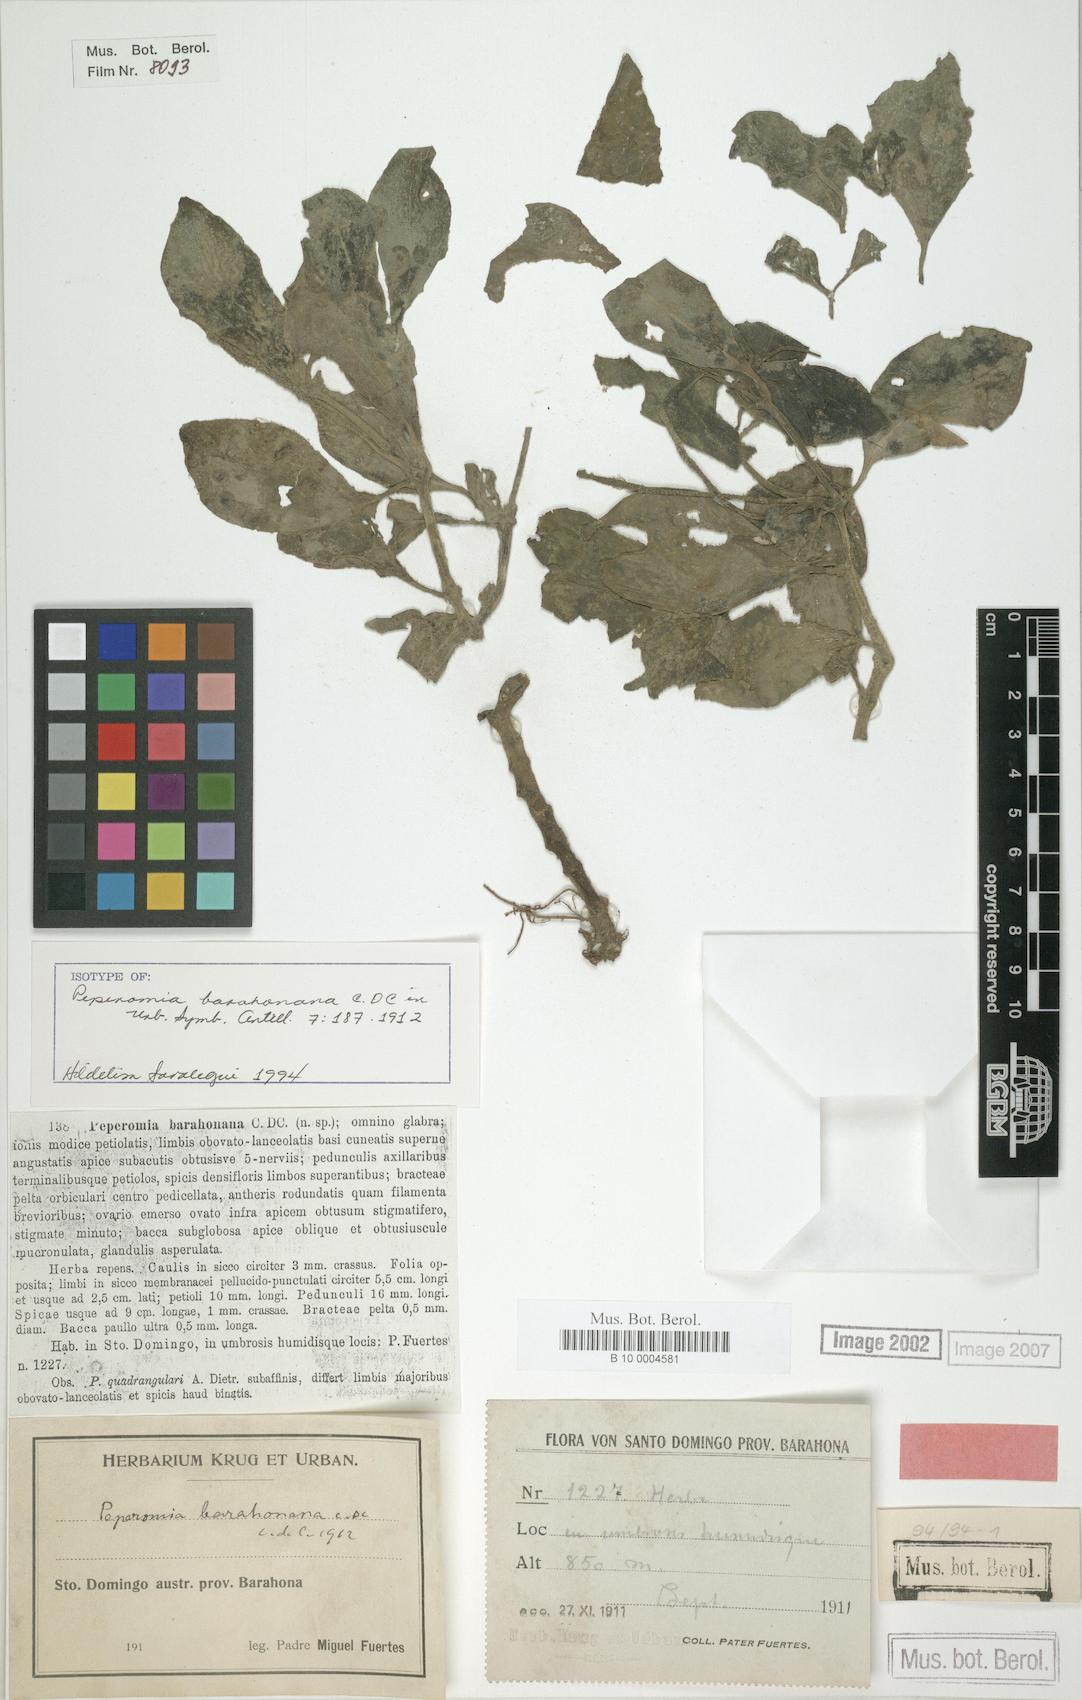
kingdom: Plantae
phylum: Tracheophyta
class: Magnoliopsida
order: Piperales
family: Piperaceae
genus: Peperomia
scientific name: Peperomia barahonana
